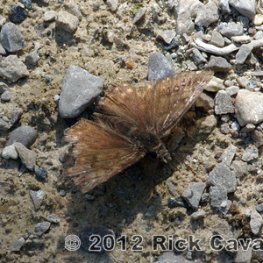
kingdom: Animalia
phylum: Arthropoda
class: Insecta
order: Lepidoptera
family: Hesperiidae
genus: Gesta
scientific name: Gesta
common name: Juvenal's Duskywing
